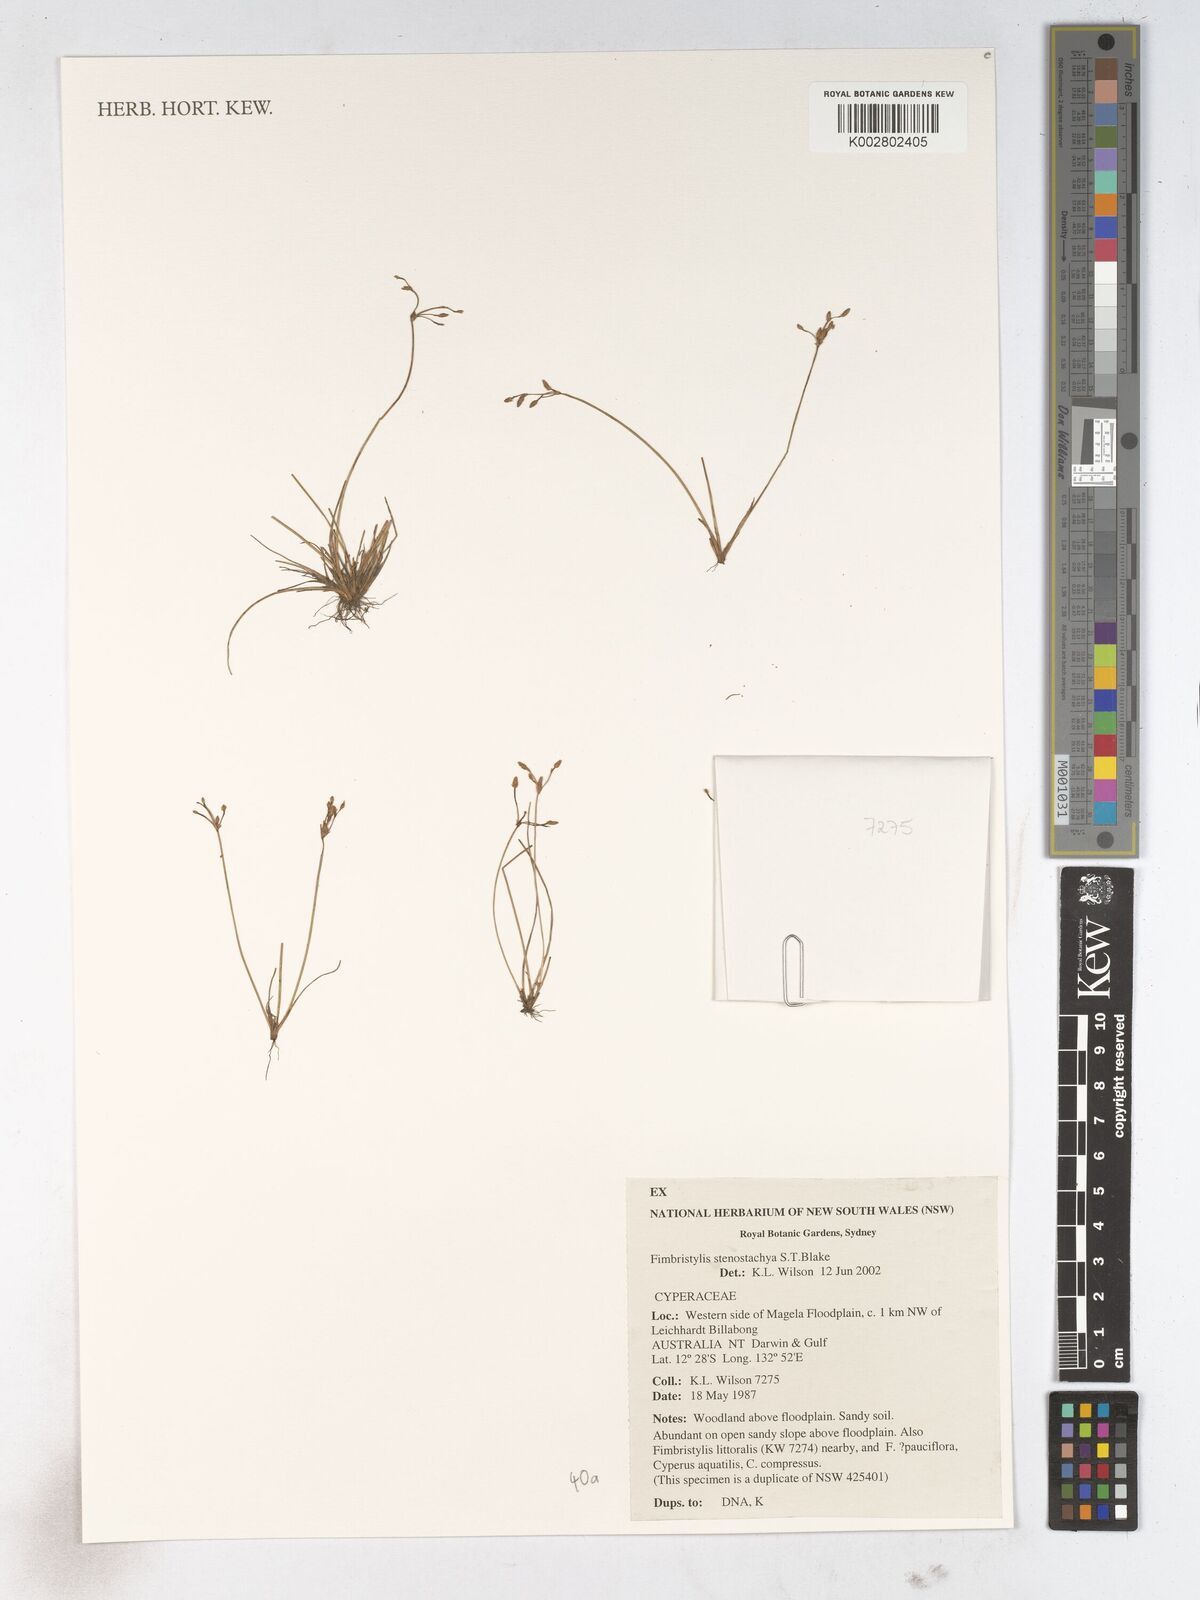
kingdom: Plantae
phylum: Tracheophyta
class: Liliopsida
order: Poales
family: Cyperaceae
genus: Fimbristylis
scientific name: Fimbristylis stenostachya
